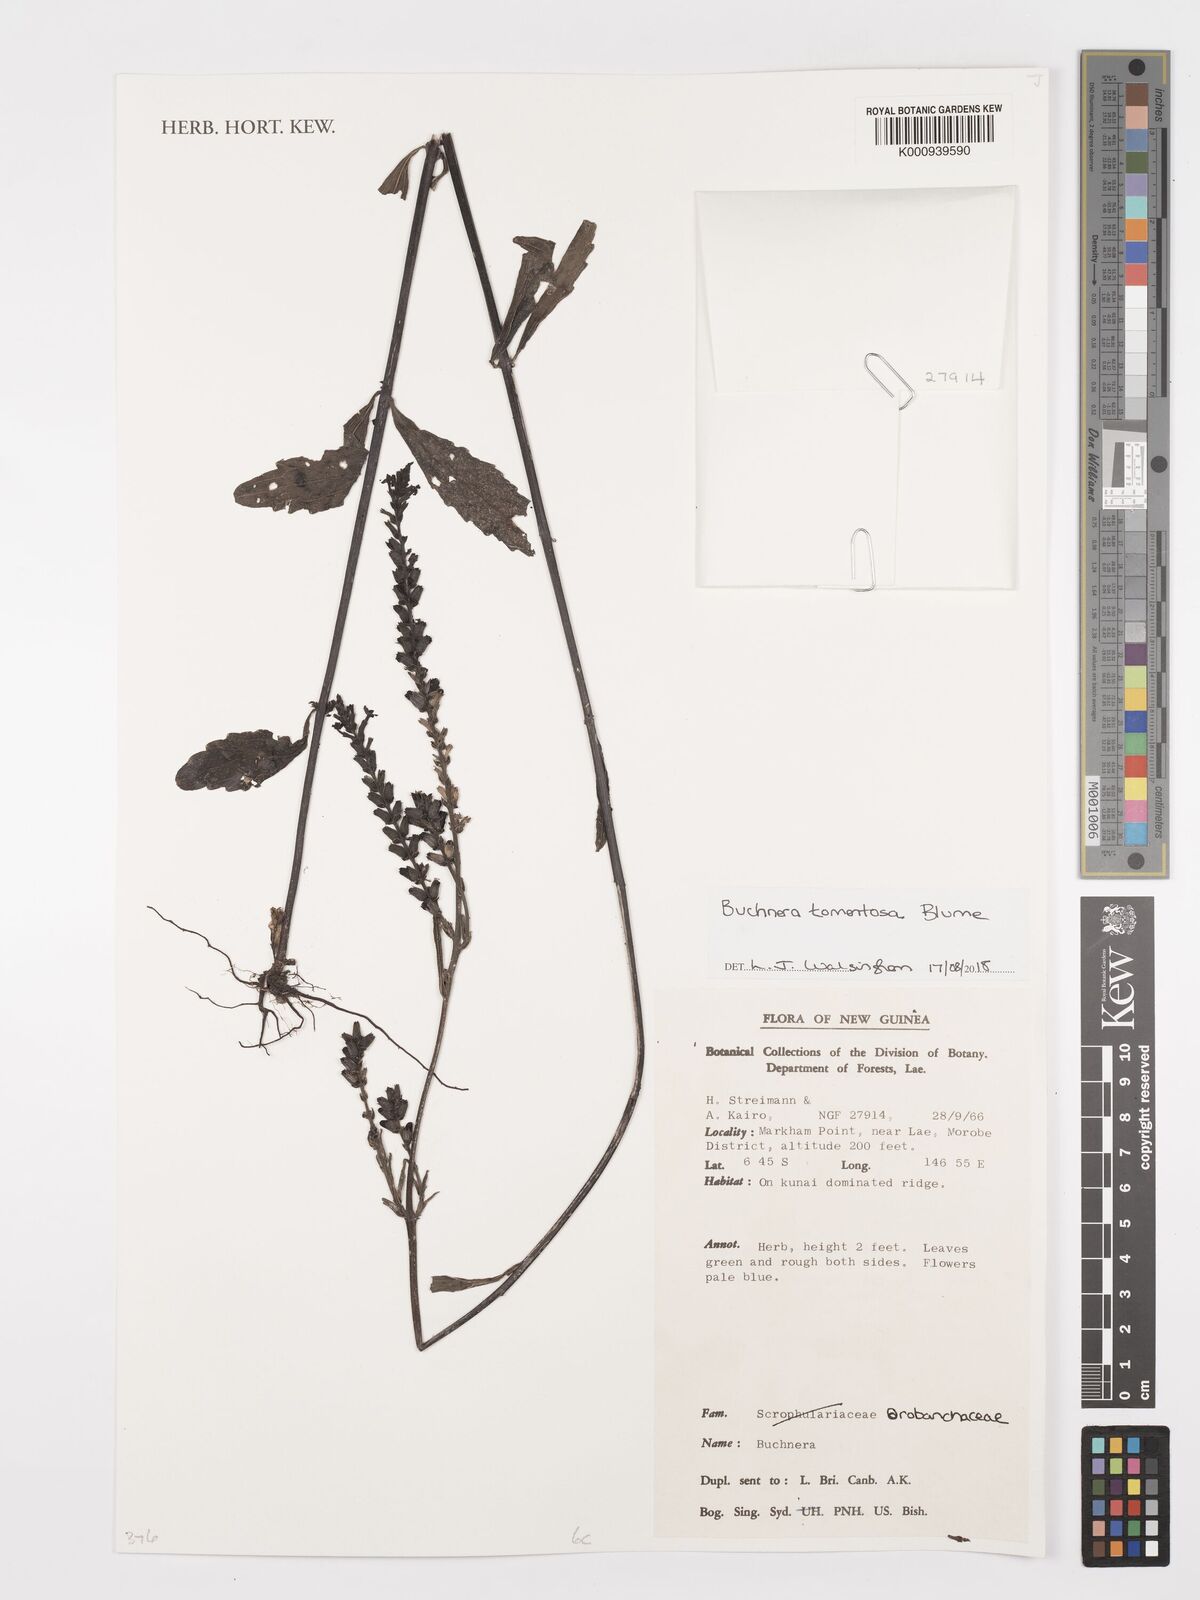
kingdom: Plantae
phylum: Tracheophyta
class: Magnoliopsida
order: Lamiales
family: Orobanchaceae
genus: Buchnera
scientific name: Buchnera tomentosa
